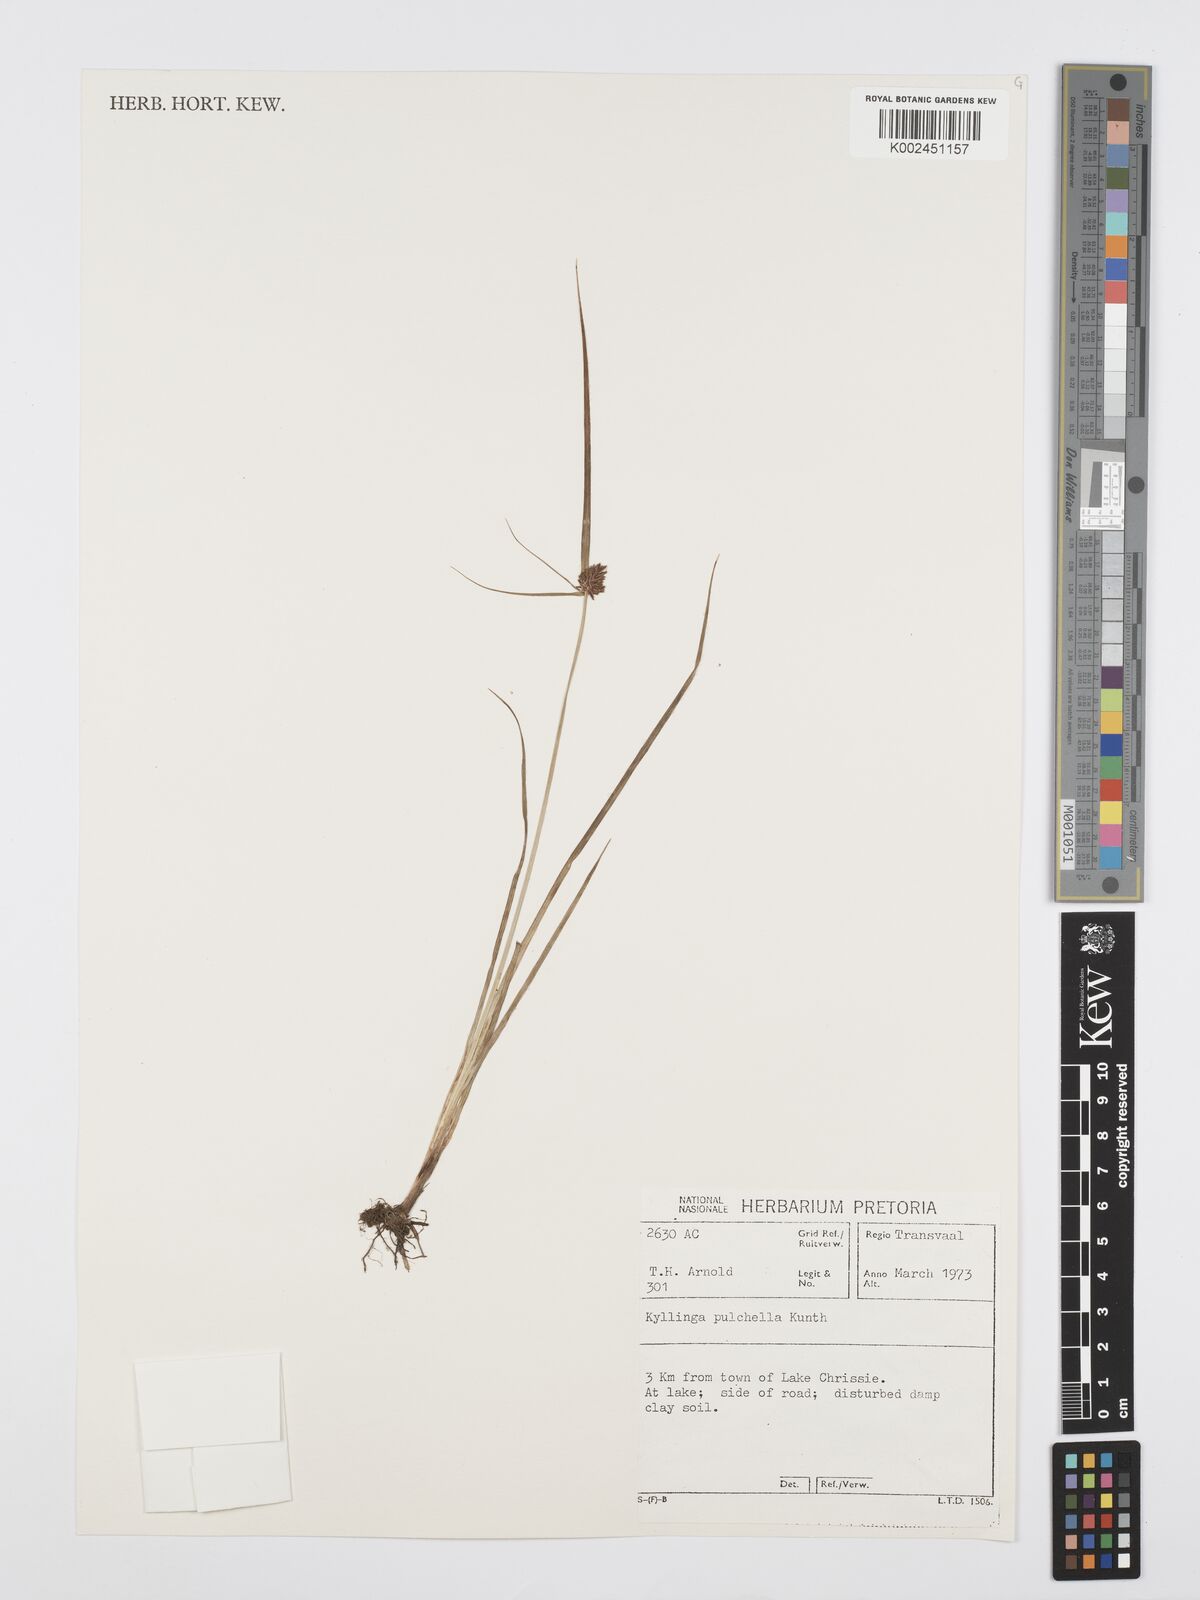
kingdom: Plantae
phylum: Tracheophyta
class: Liliopsida
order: Poales
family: Cyperaceae
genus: Cyperus
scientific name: Cyperus
